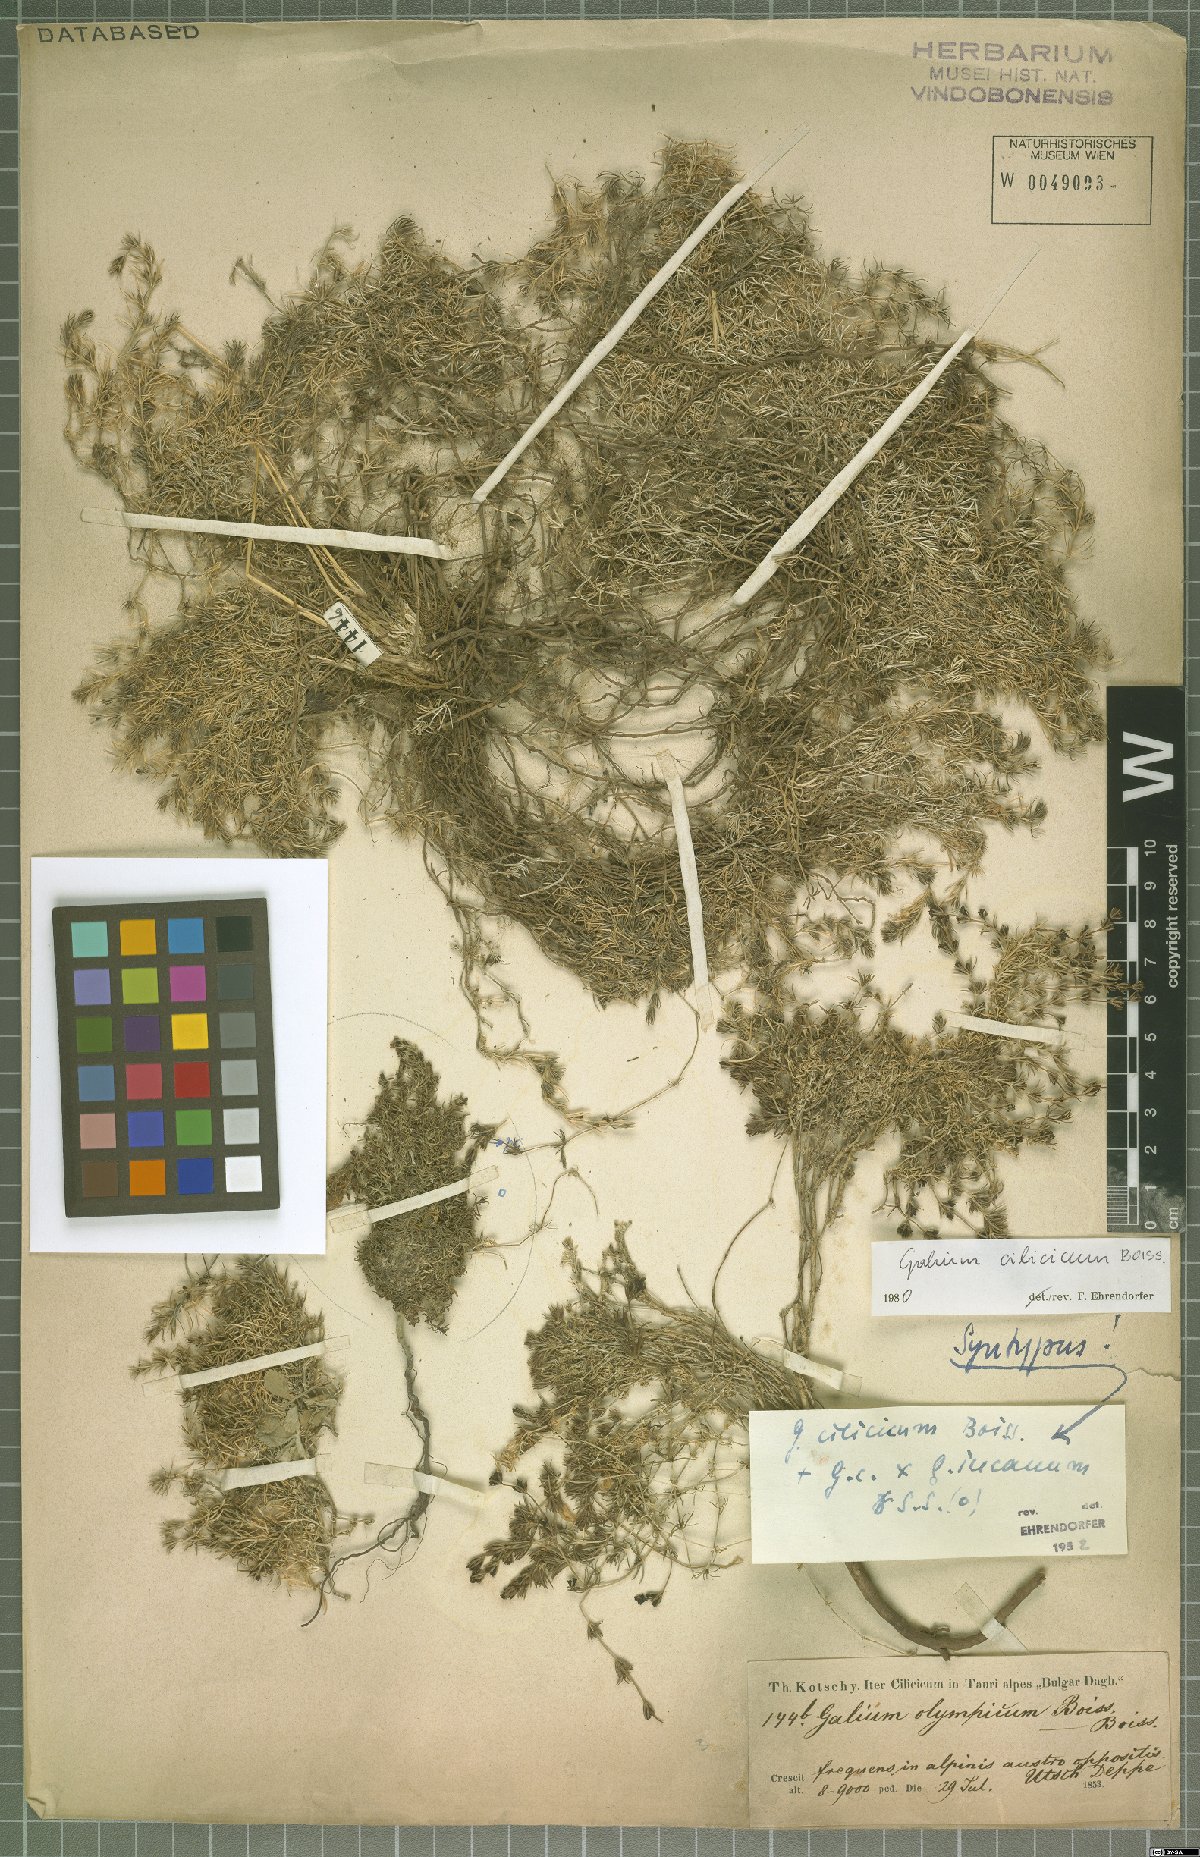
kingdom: Plantae
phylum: Tracheophyta
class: Magnoliopsida
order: Gentianales
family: Rubiaceae
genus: Galium
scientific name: Galium cilicicum
